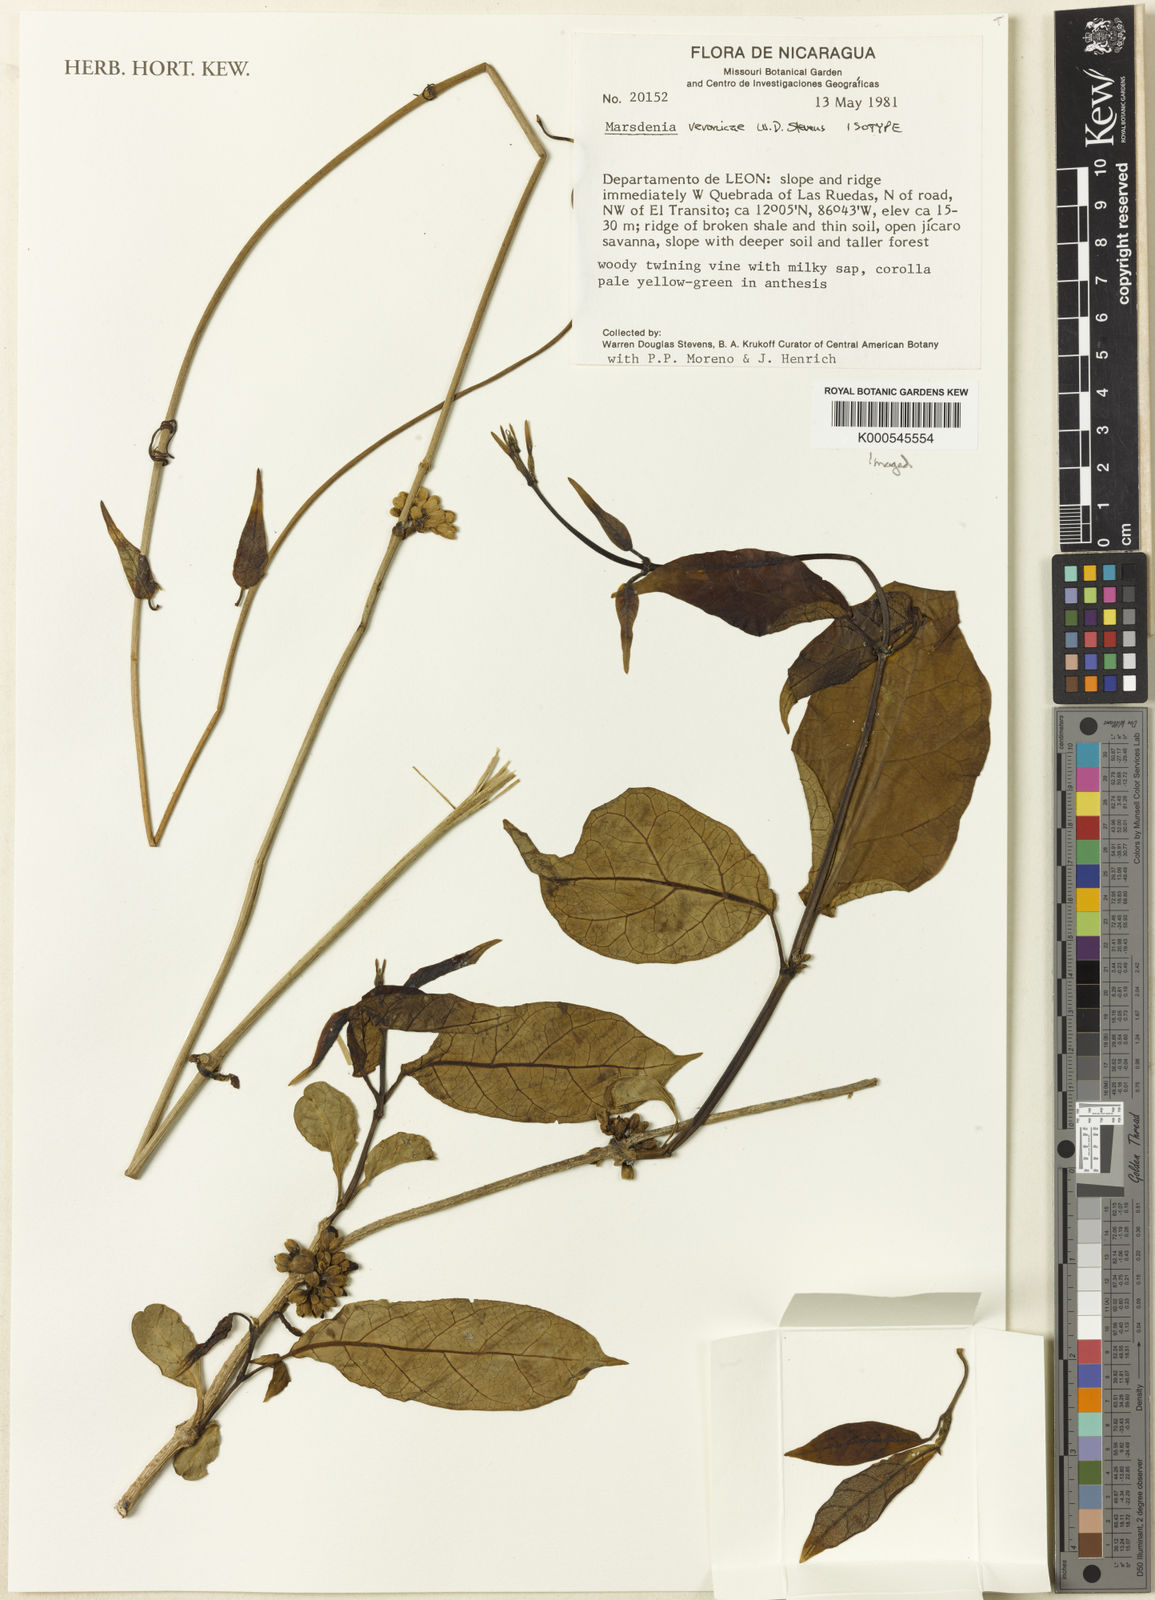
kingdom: Plantae
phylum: Tracheophyta
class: Magnoliopsida
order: Gentianales
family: Apocynaceae
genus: Ruehssia
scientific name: Ruehssia veronicae
